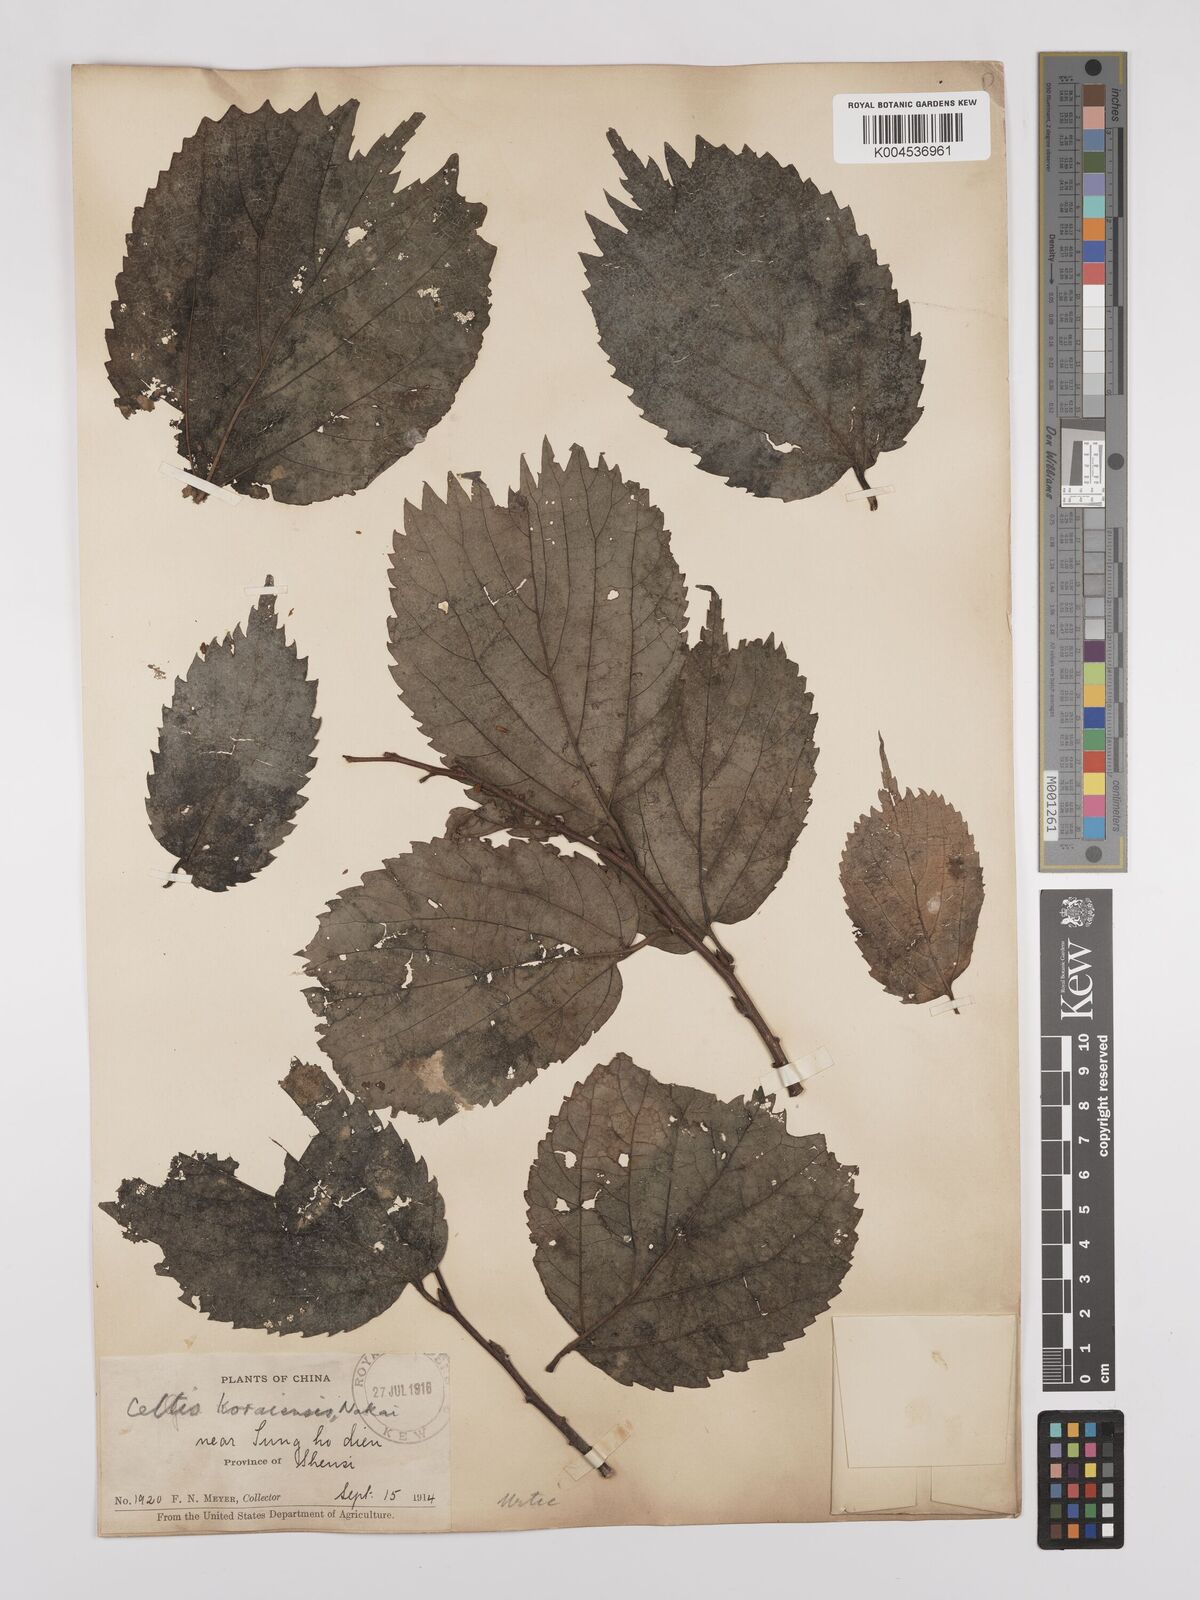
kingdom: Plantae
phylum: Tracheophyta
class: Magnoliopsida
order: Rosales
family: Cannabaceae
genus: Celtis
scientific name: Celtis koraiensis
